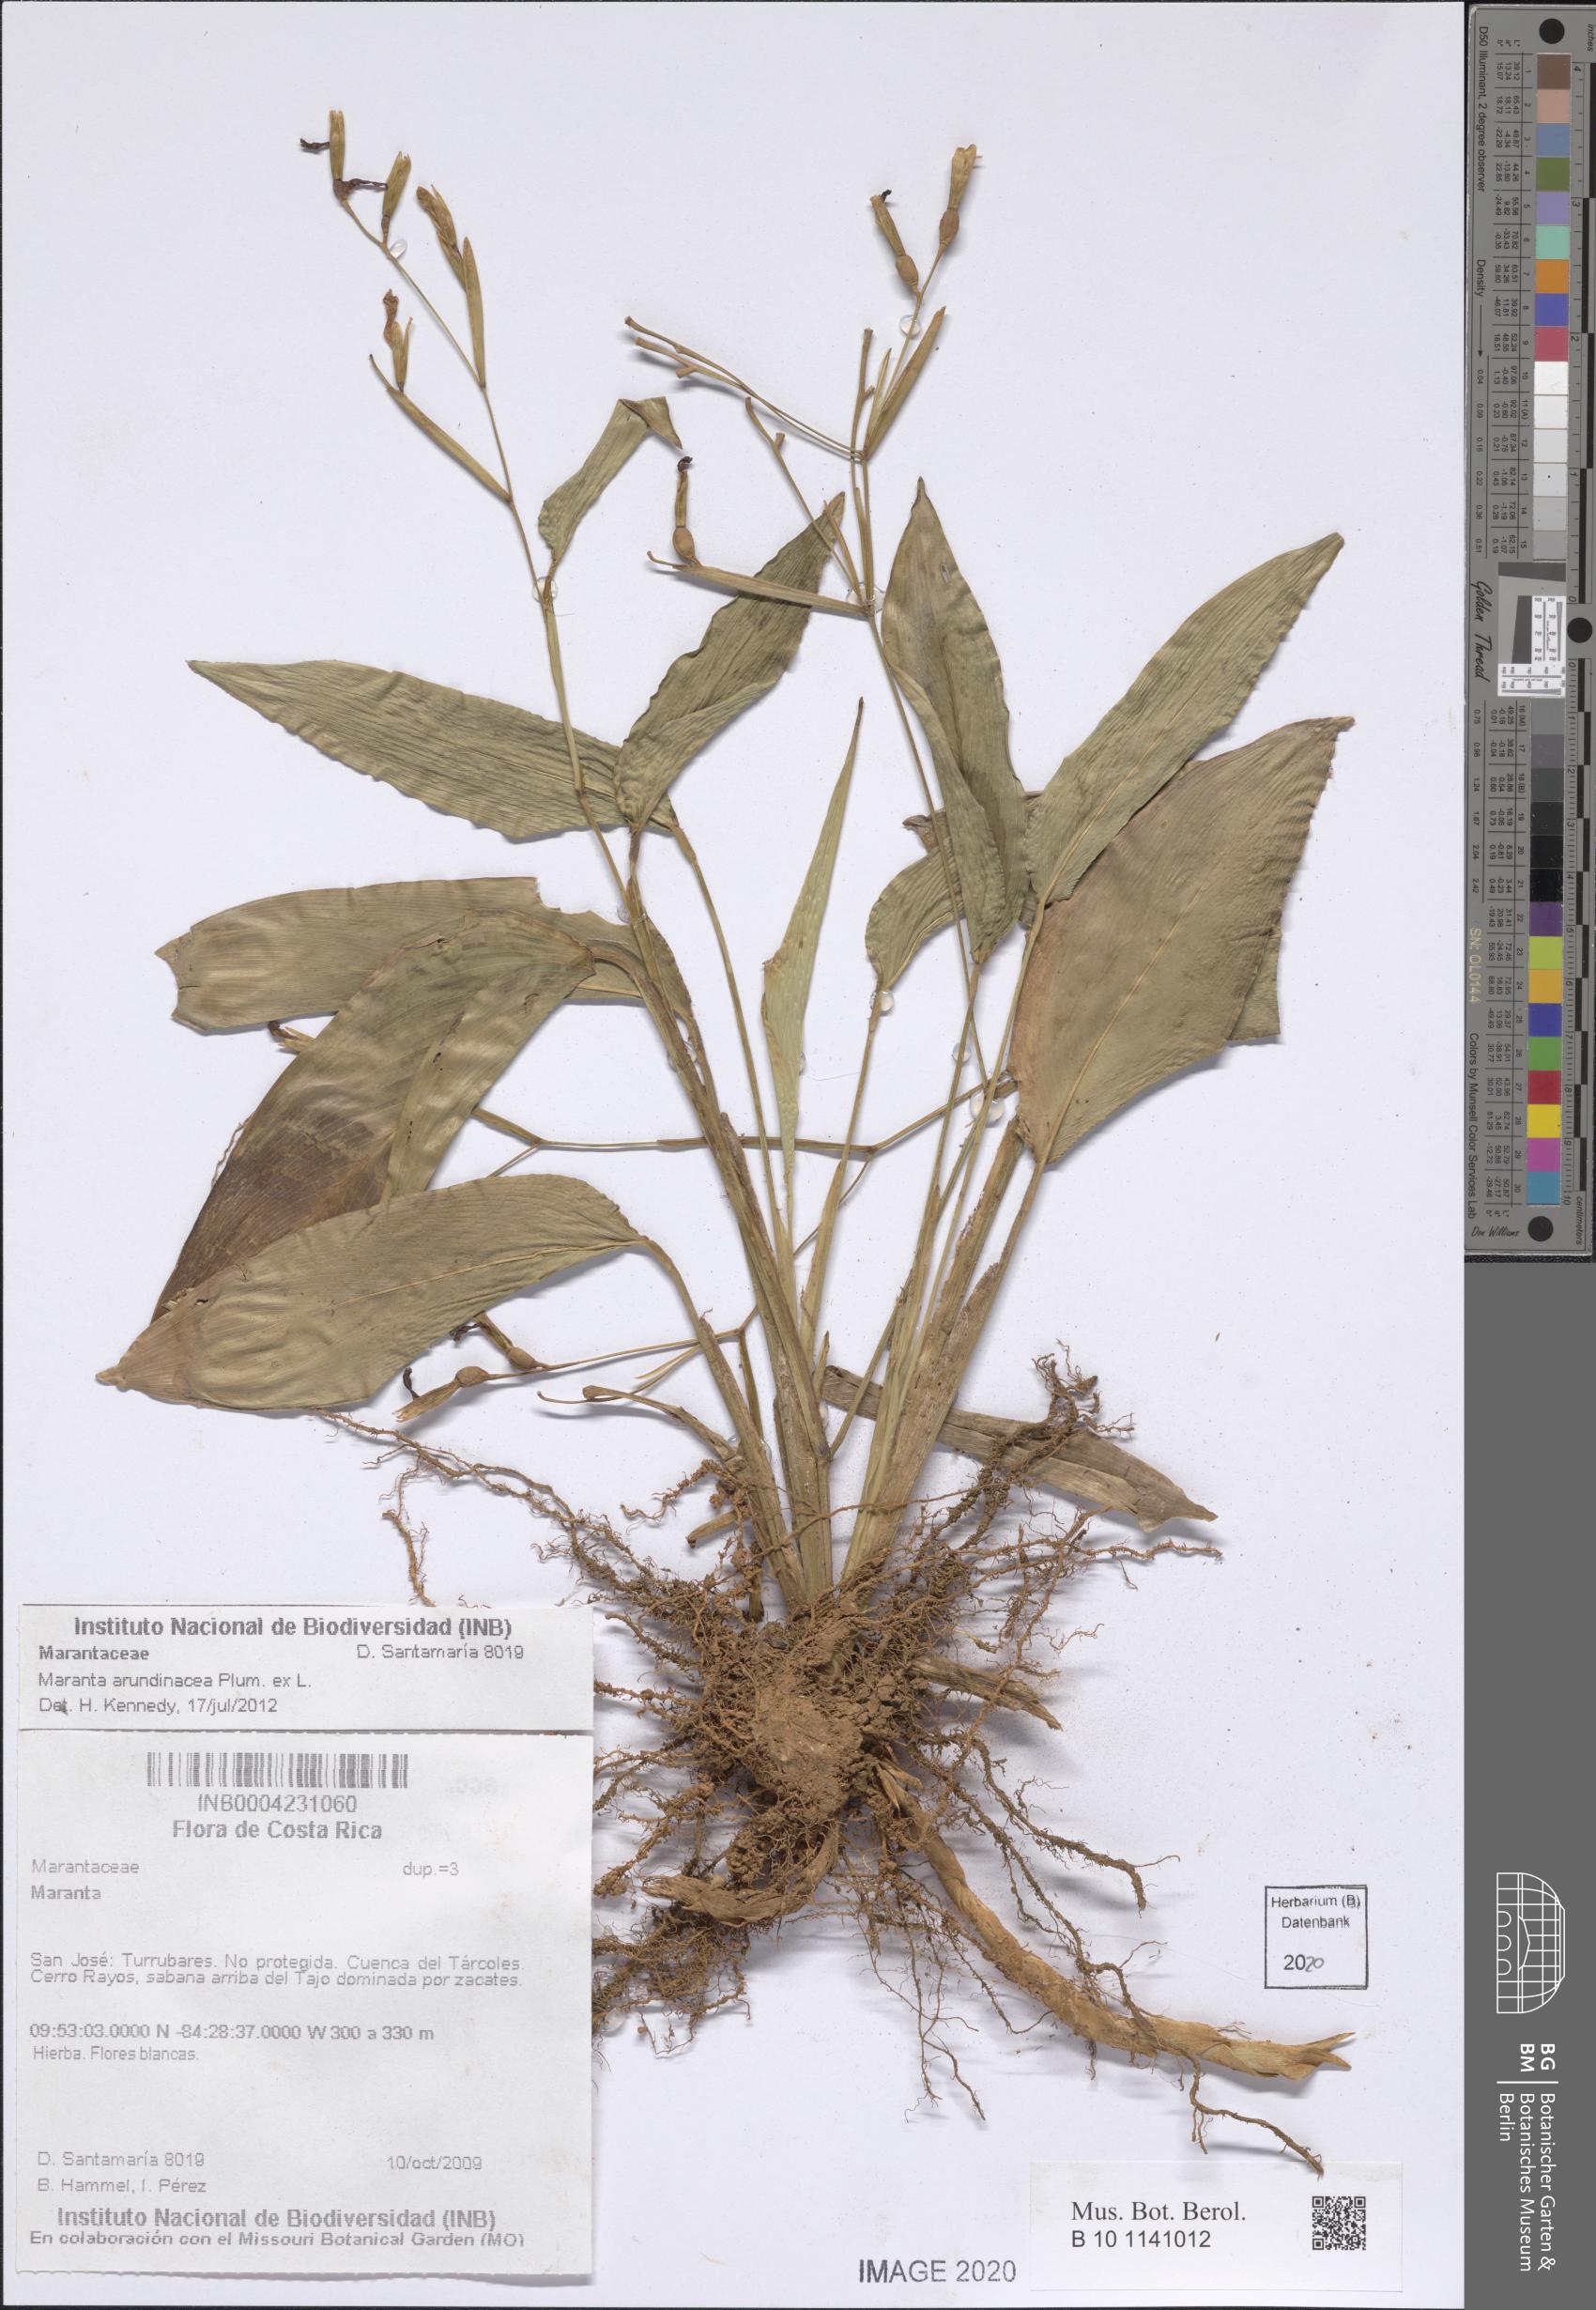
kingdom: Plantae
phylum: Tracheophyta
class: Liliopsida
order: Zingiberales
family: Marantaceae
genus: Maranta
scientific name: Maranta arundinacea
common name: Arrowroot
